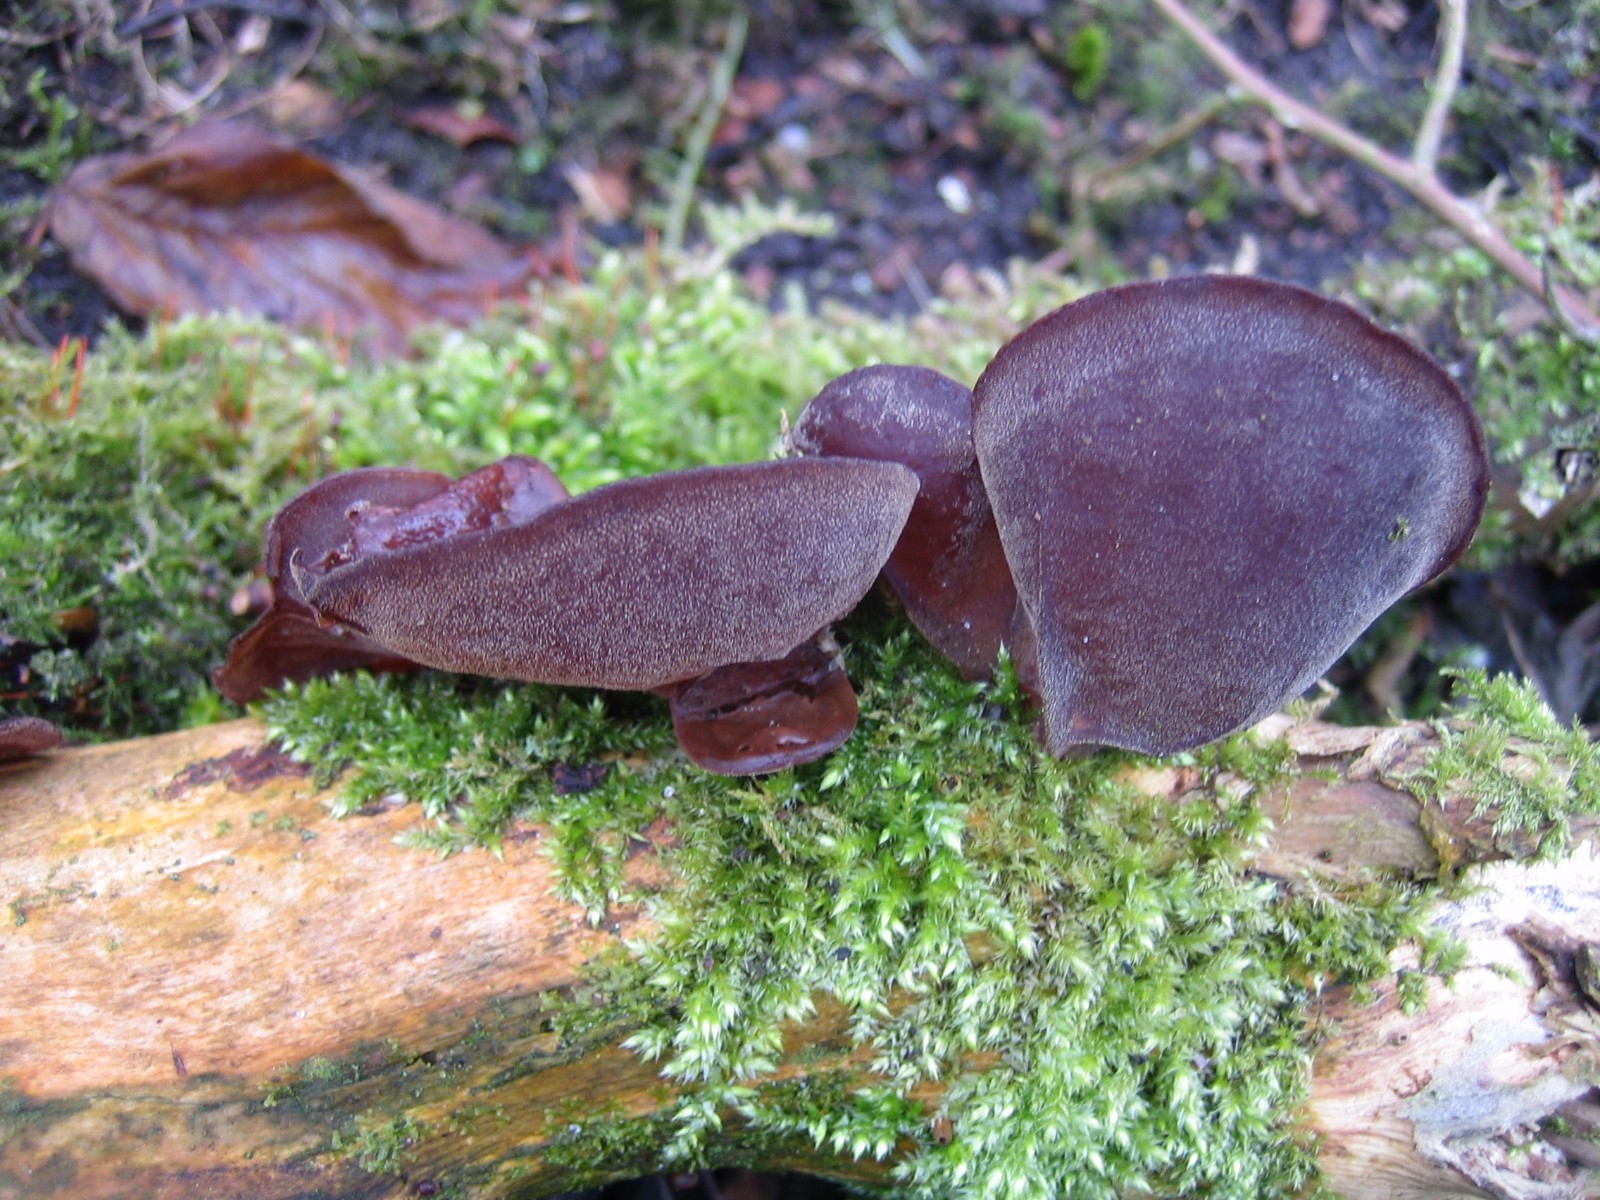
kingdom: Fungi
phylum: Basidiomycota
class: Agaricomycetes
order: Auriculariales
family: Auriculariaceae
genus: Auricularia
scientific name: Auricularia auricula-judae
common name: almindelig judasøre
